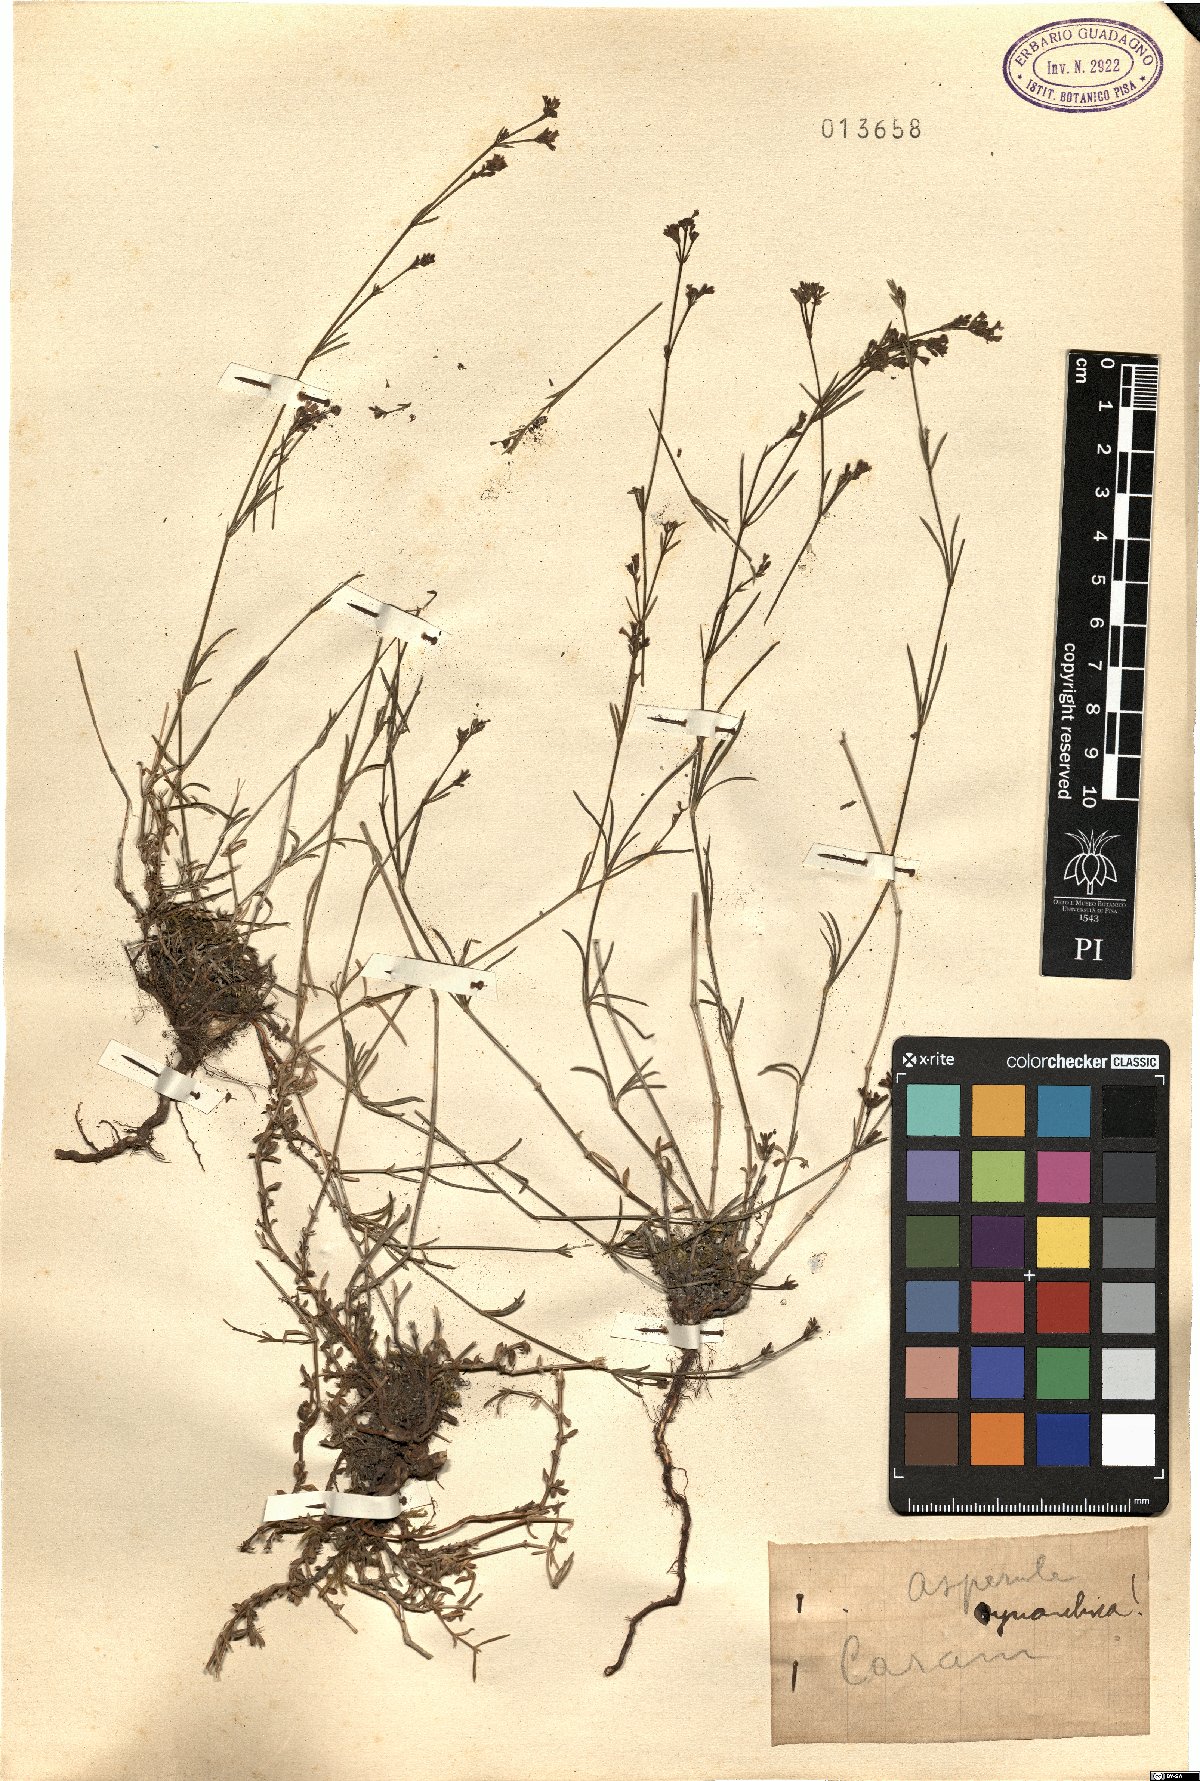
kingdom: Plantae
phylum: Tracheophyta
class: Magnoliopsida
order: Gentianales
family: Rubiaceae
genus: Cynanchica
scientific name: Cynanchica pyrenaica
